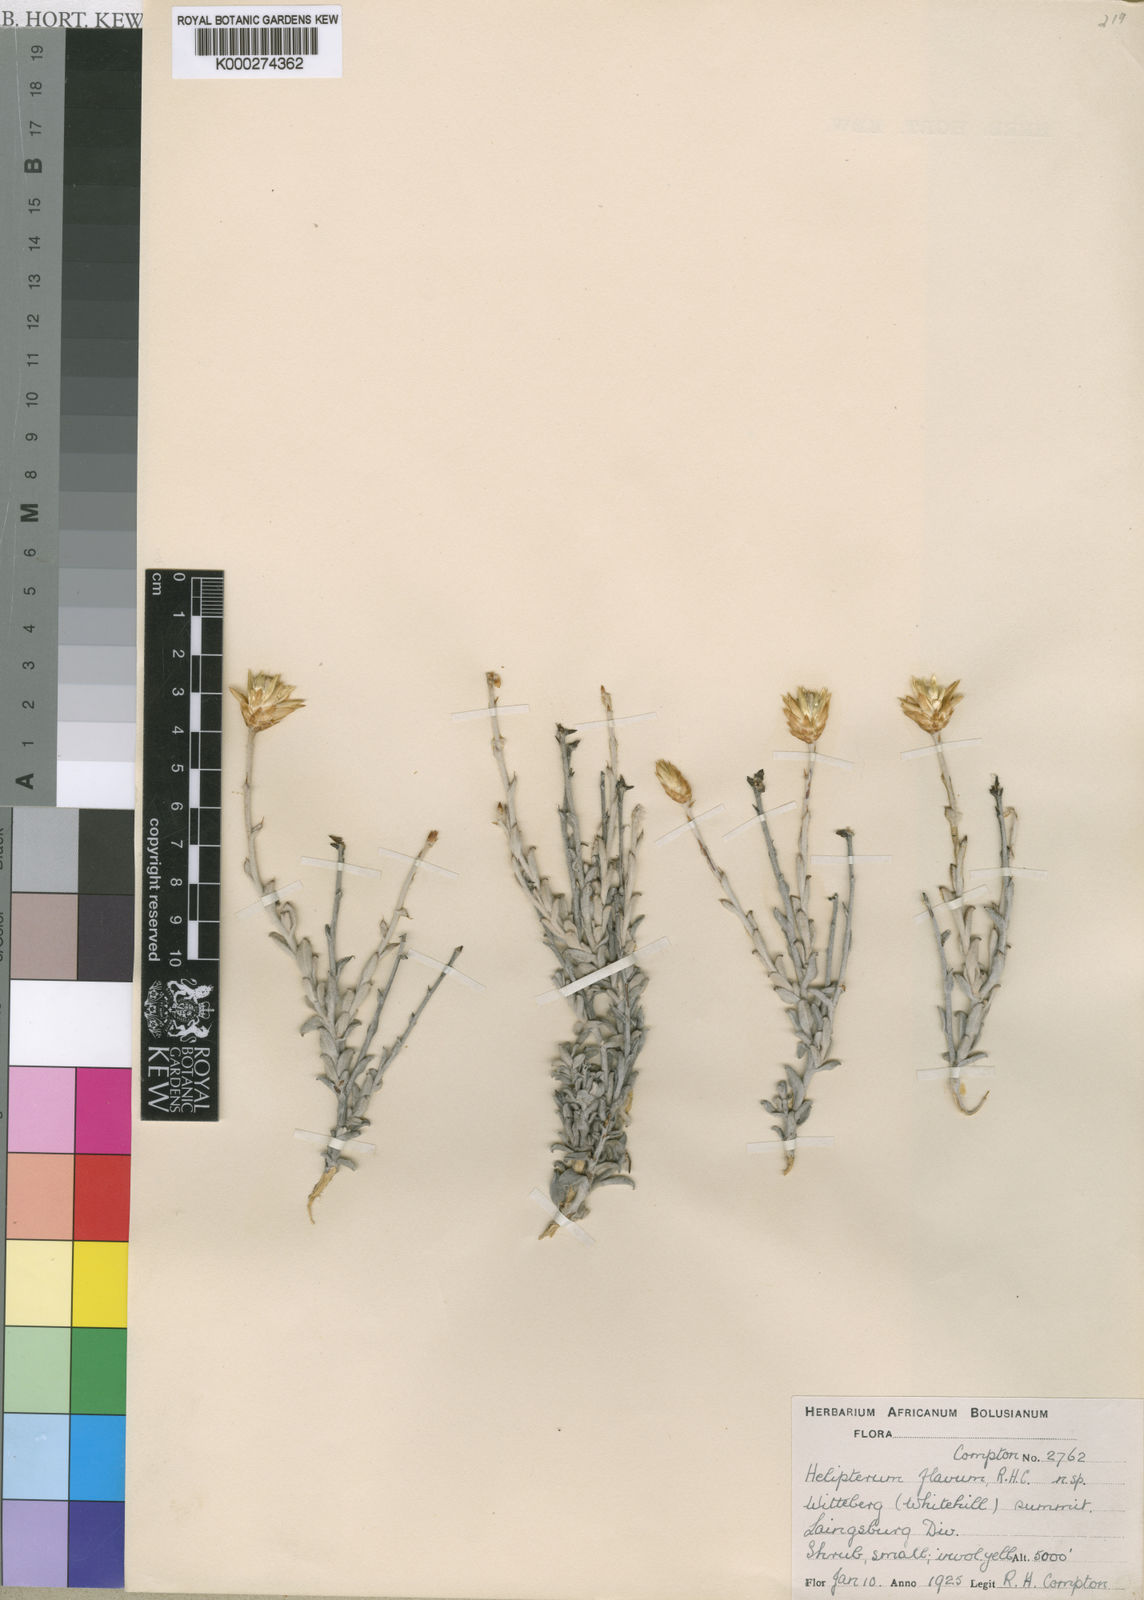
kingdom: Plantae
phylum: Tracheophyta
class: Magnoliopsida
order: Asterales
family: Asteraceae
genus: Syncarpha
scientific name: Syncarpha flava
